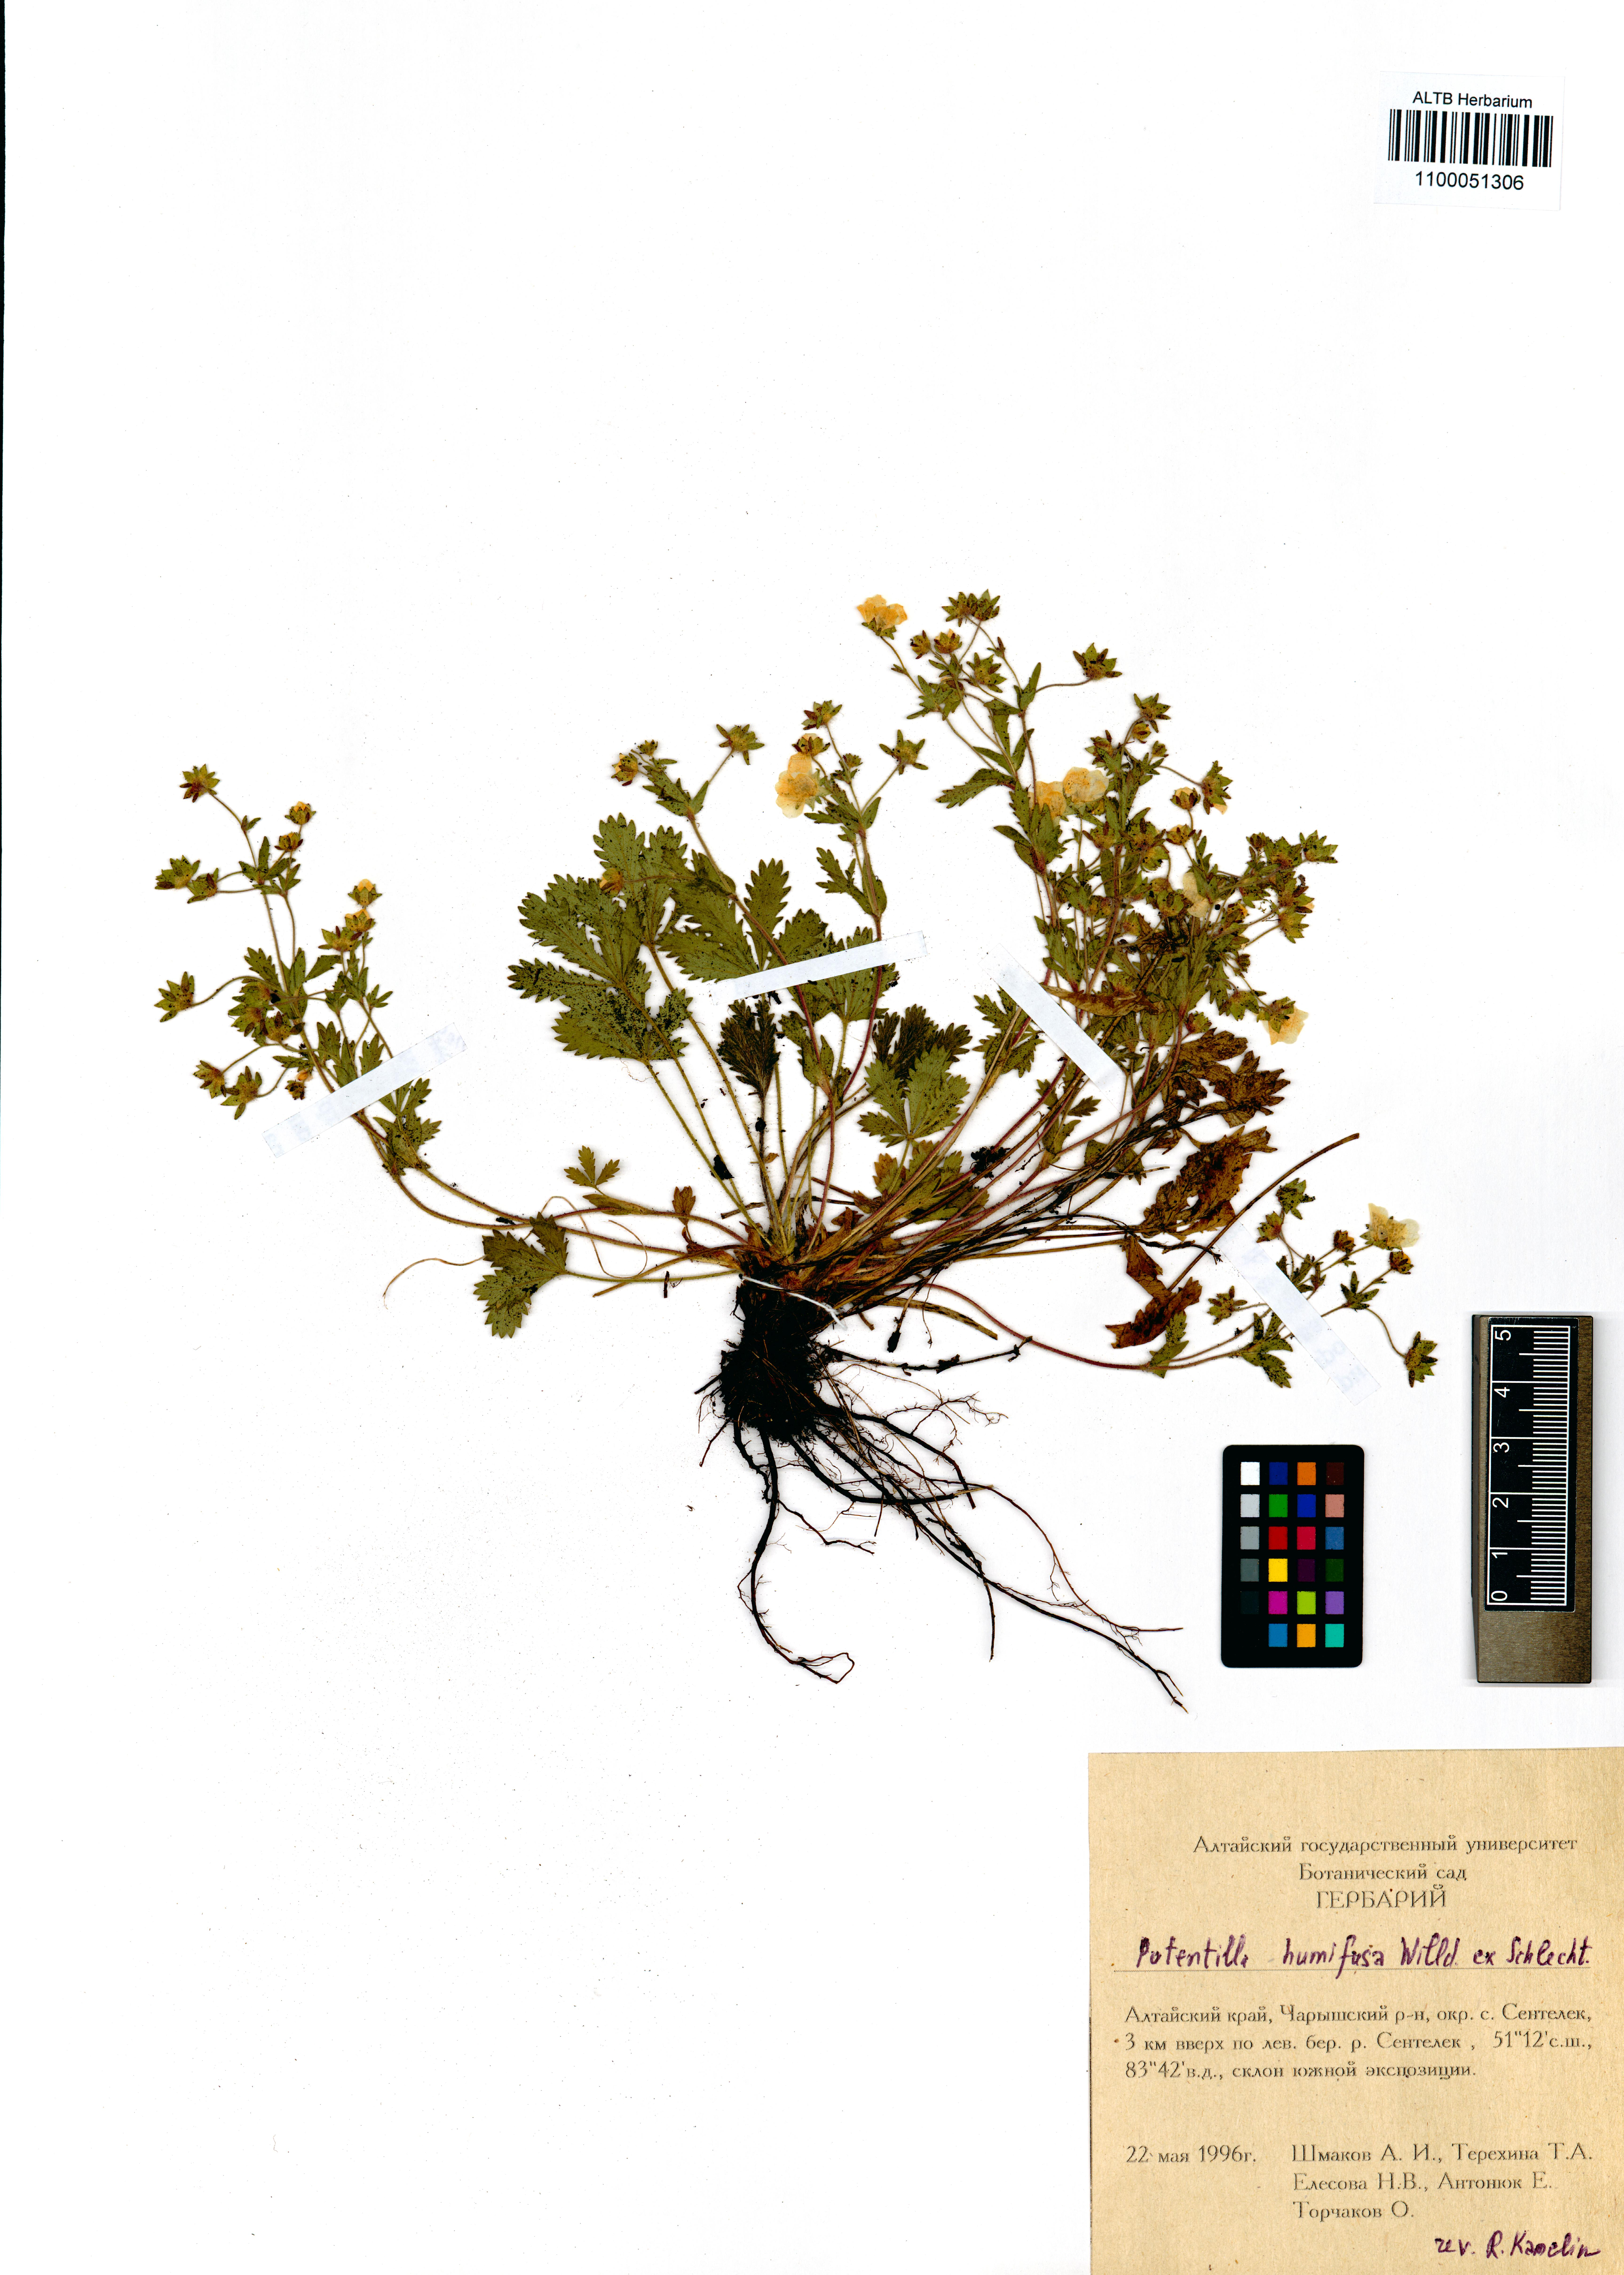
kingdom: Plantae
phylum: Tracheophyta
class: Magnoliopsida
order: Rosales
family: Rosaceae
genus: Potentilla
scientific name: Potentilla humifusa
